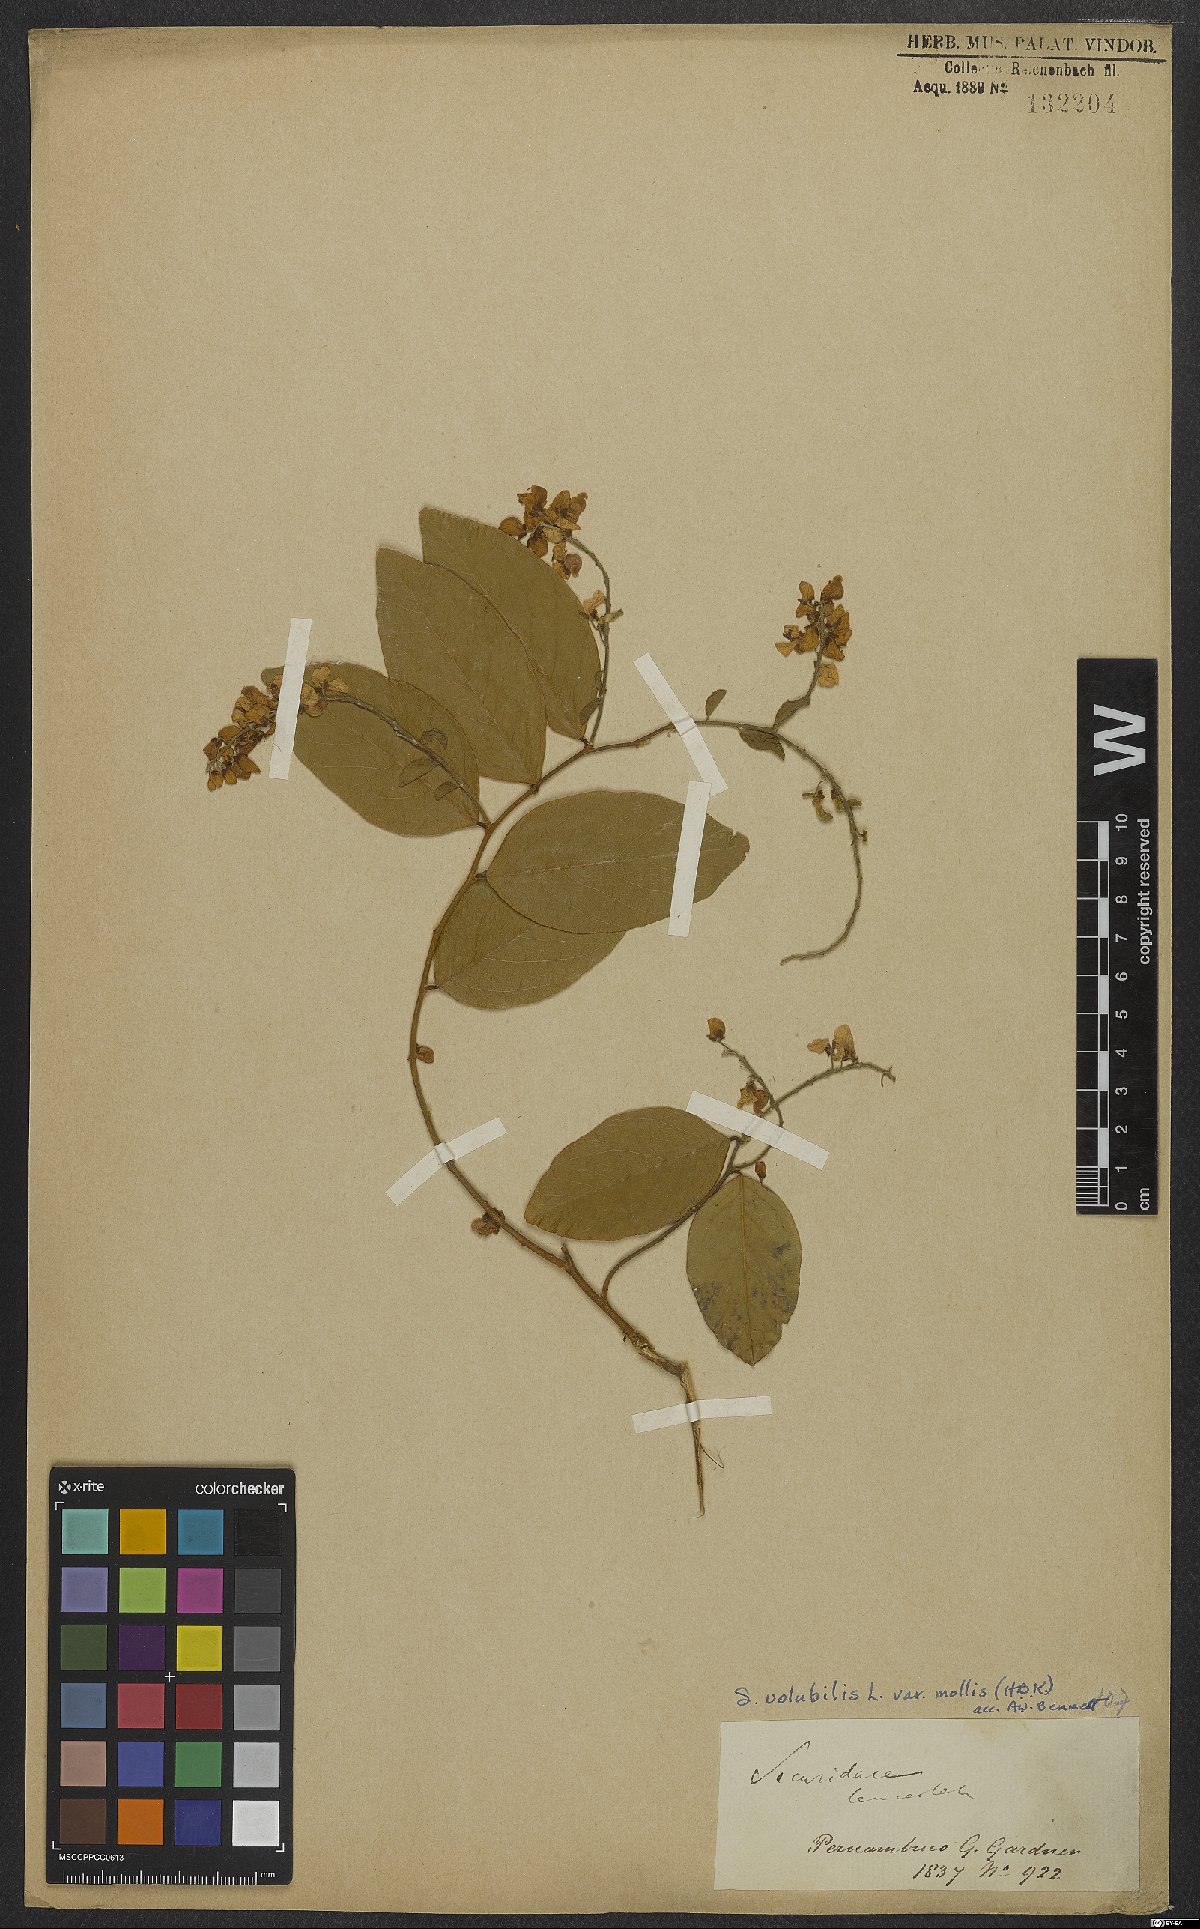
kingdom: Plantae
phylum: Tracheophyta
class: Magnoliopsida
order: Fabales
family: Polygalaceae
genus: Securidaca
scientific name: Securidaca coriacea
